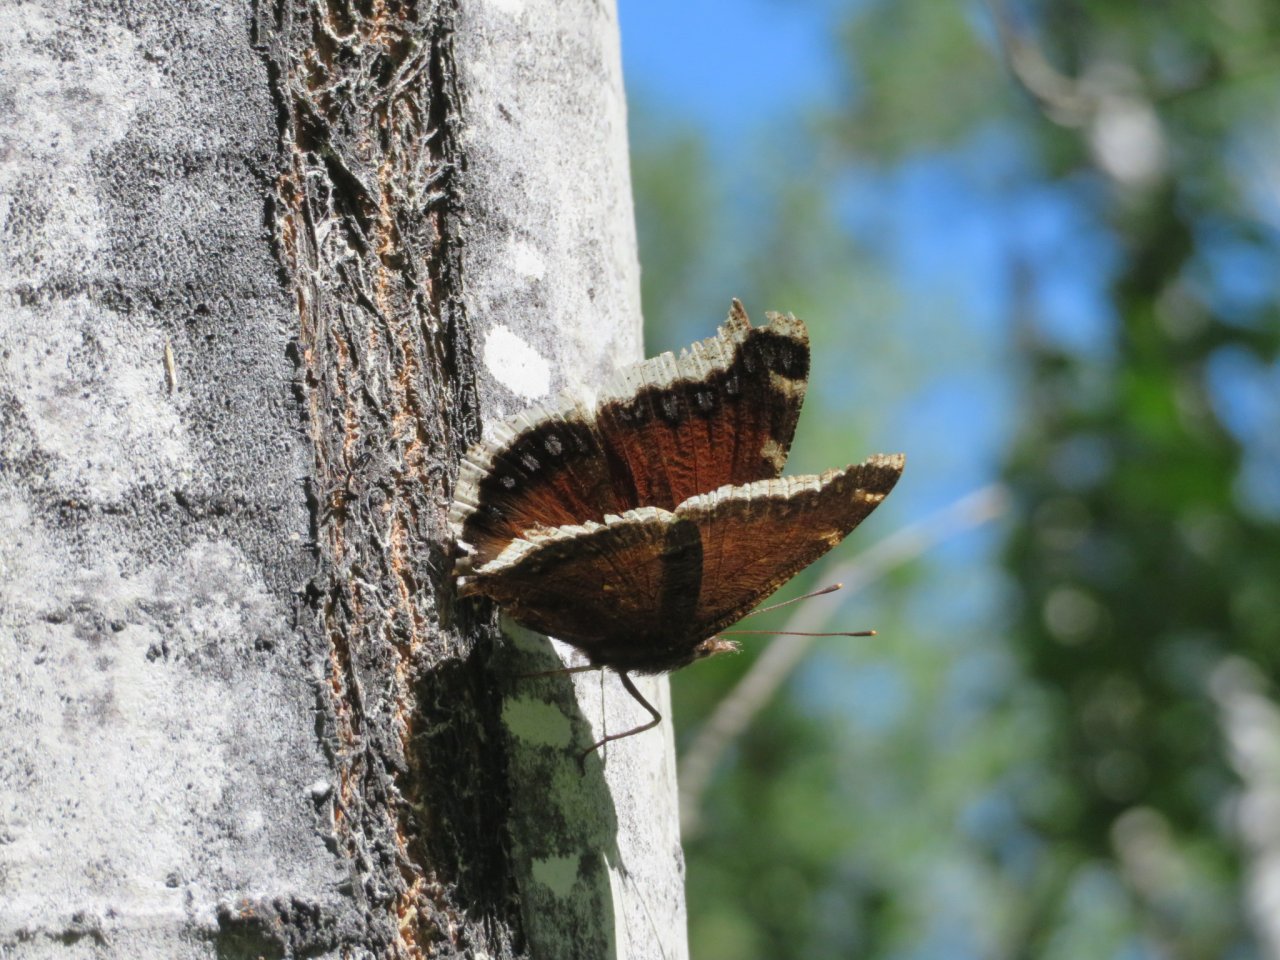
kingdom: Animalia
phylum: Arthropoda
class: Insecta
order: Lepidoptera
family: Nymphalidae
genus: Nymphalis
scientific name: Nymphalis antiopa
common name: Mourning Cloak
